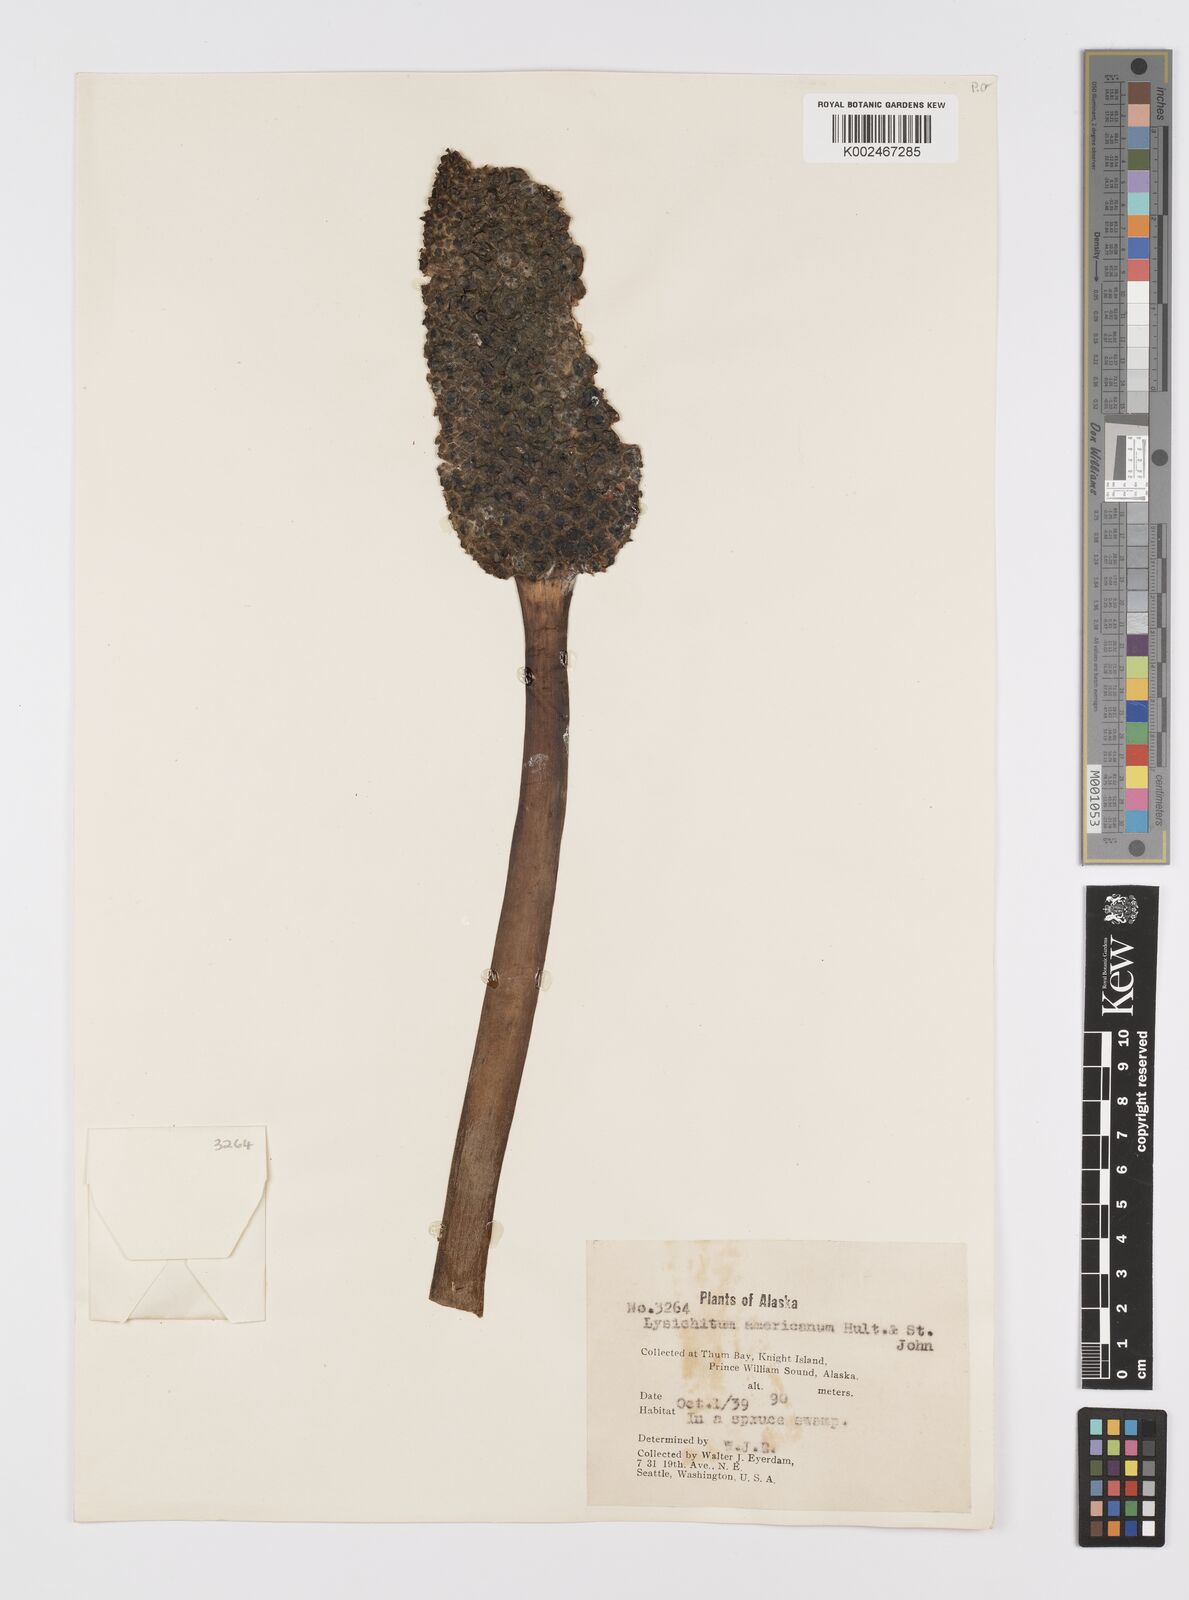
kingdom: Plantae
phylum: Tracheophyta
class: Liliopsida
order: Alismatales
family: Araceae
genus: Lysichiton
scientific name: Lysichiton americanus
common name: American skunk cabbage
